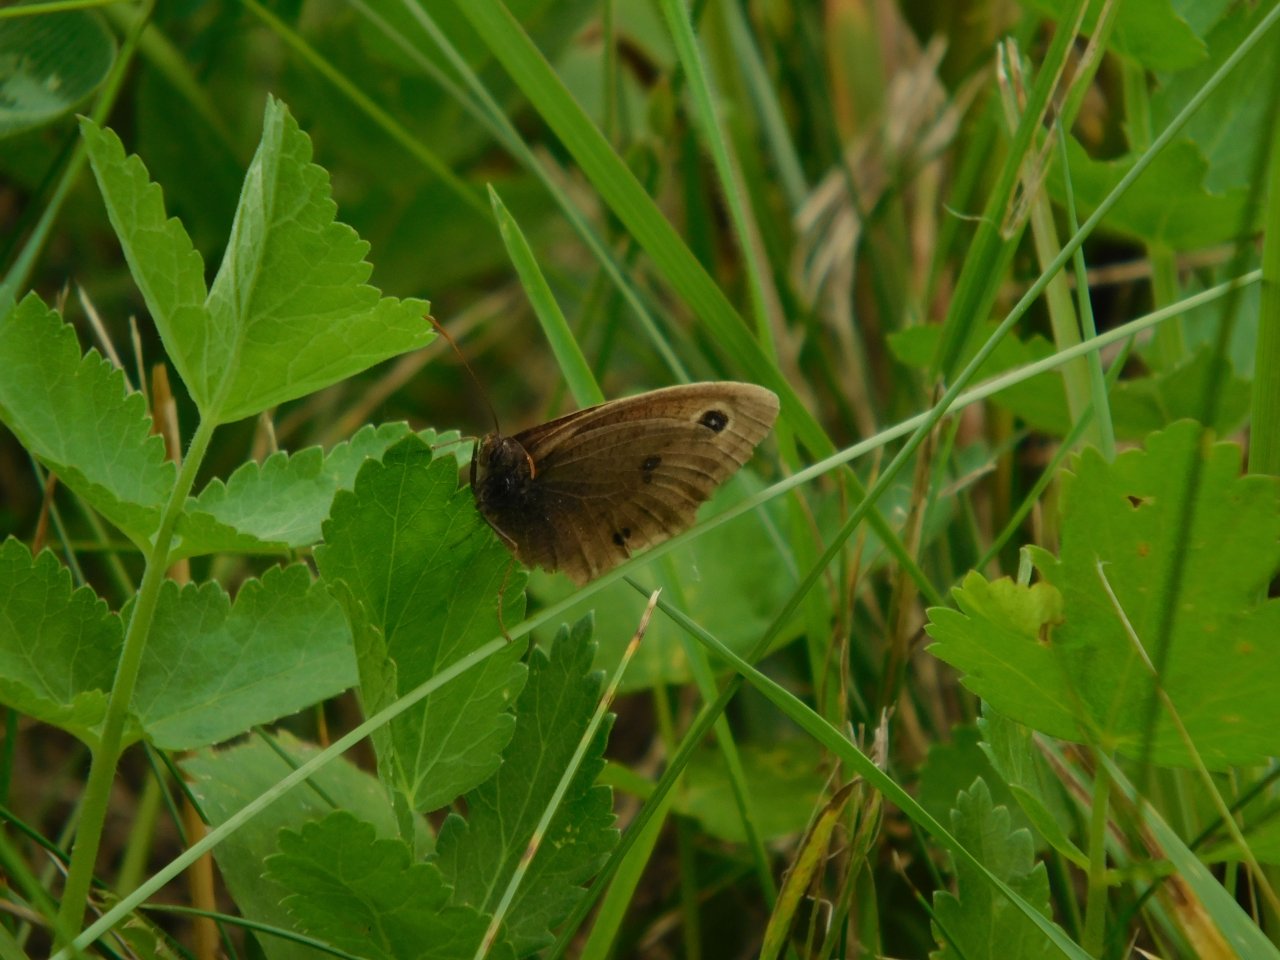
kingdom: Animalia
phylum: Arthropoda
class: Insecta
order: Lepidoptera
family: Nymphalidae
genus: Cercyonis
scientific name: Cercyonis pegala
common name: Common Wood-Nymph
